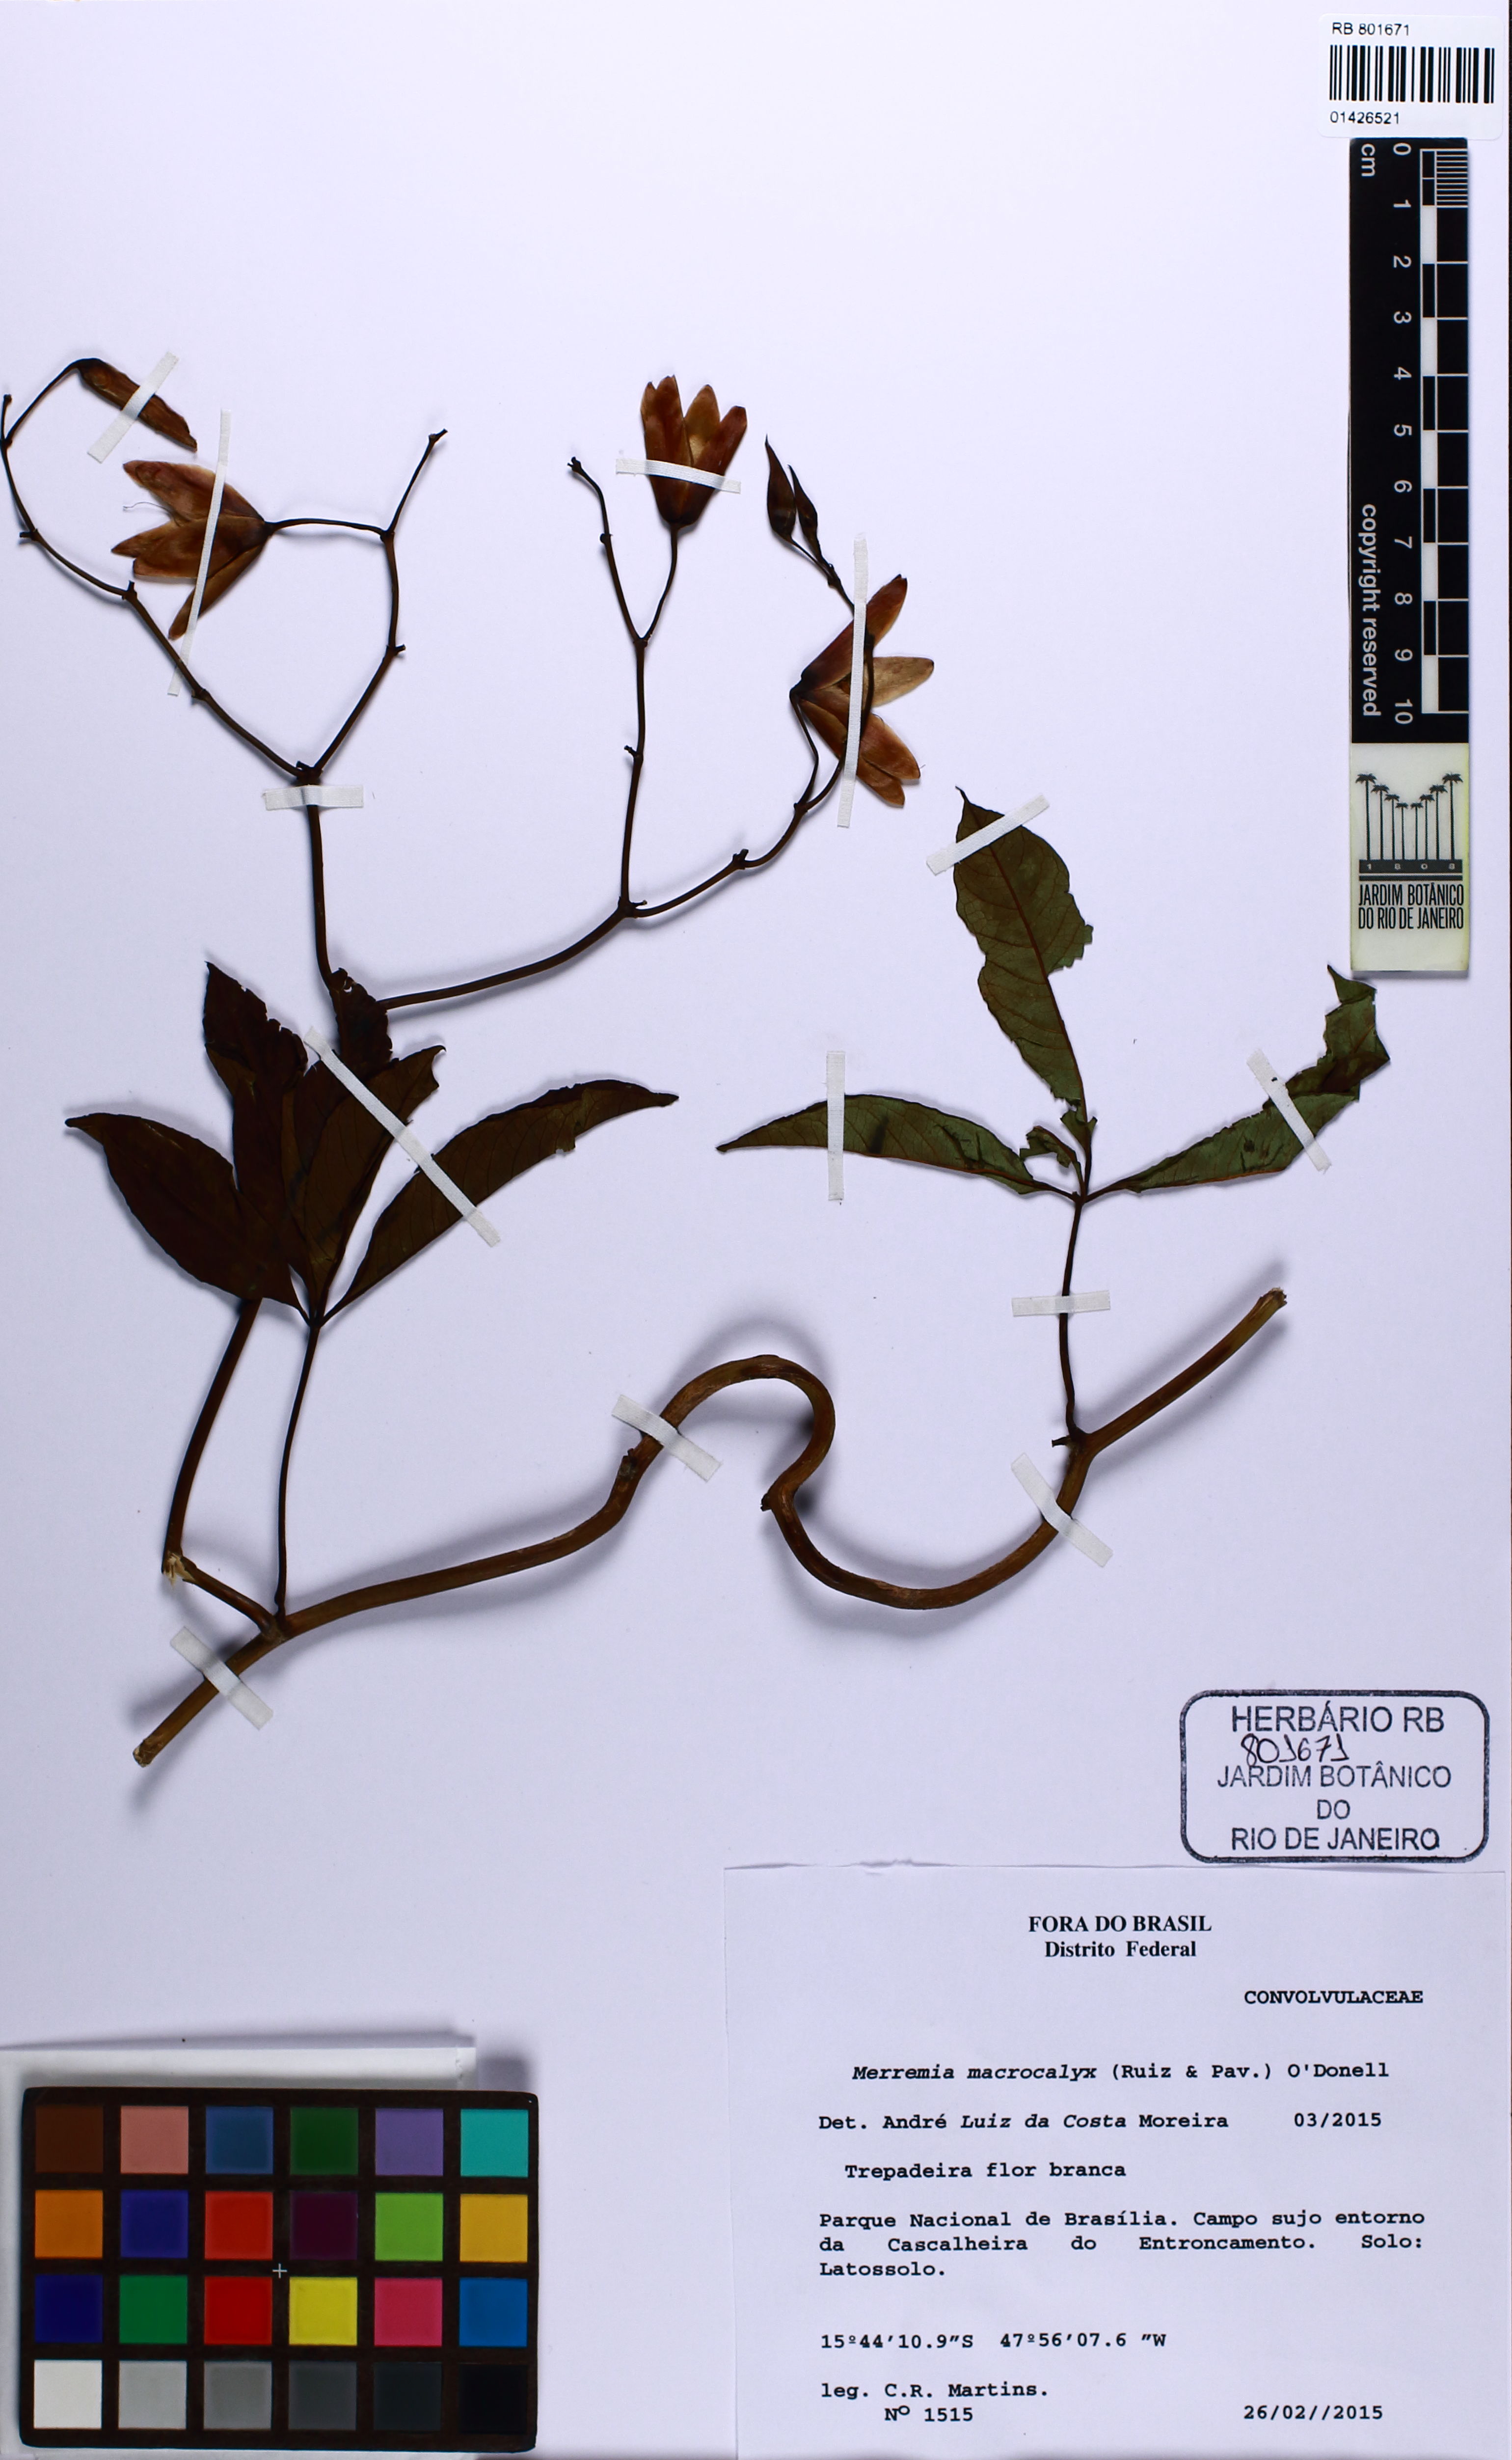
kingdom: Plantae
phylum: Tracheophyta
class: Magnoliopsida
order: Solanales
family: Convolvulaceae
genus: Distimake
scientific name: Distimake macrocalyx
